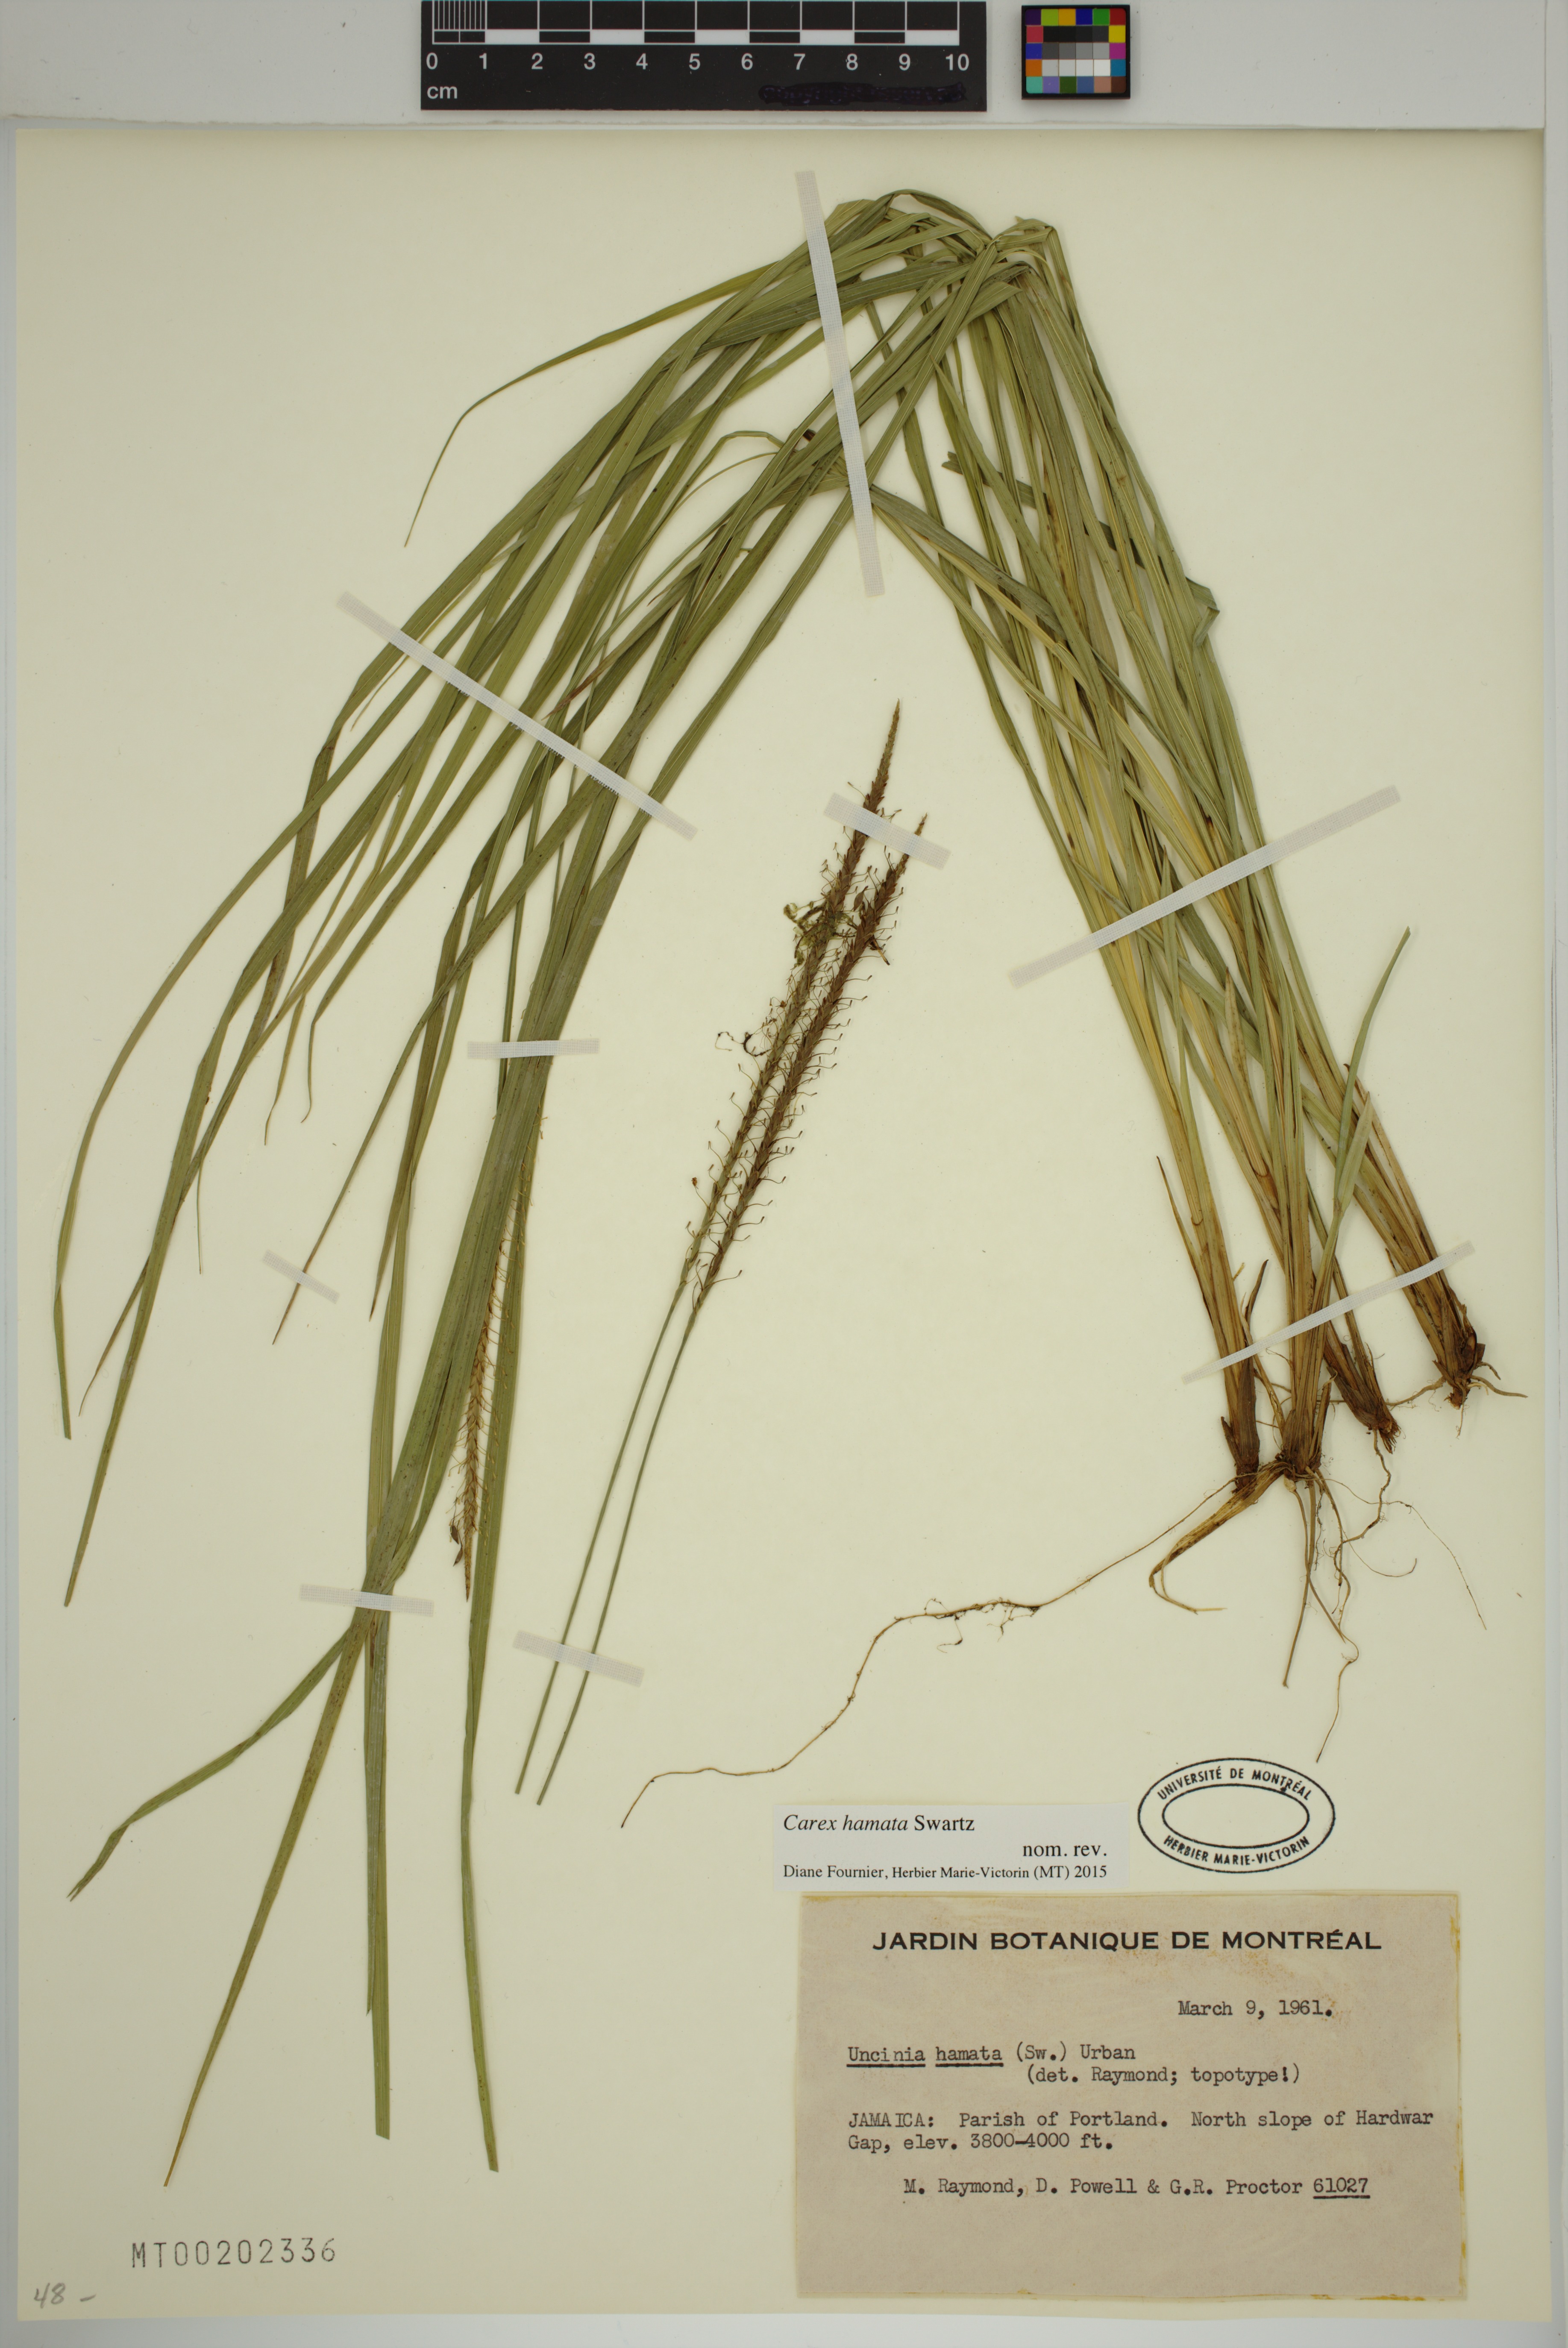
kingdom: Plantae
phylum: Tracheophyta
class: Liliopsida
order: Poales
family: Cyperaceae
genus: Carex
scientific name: Carex hamata
